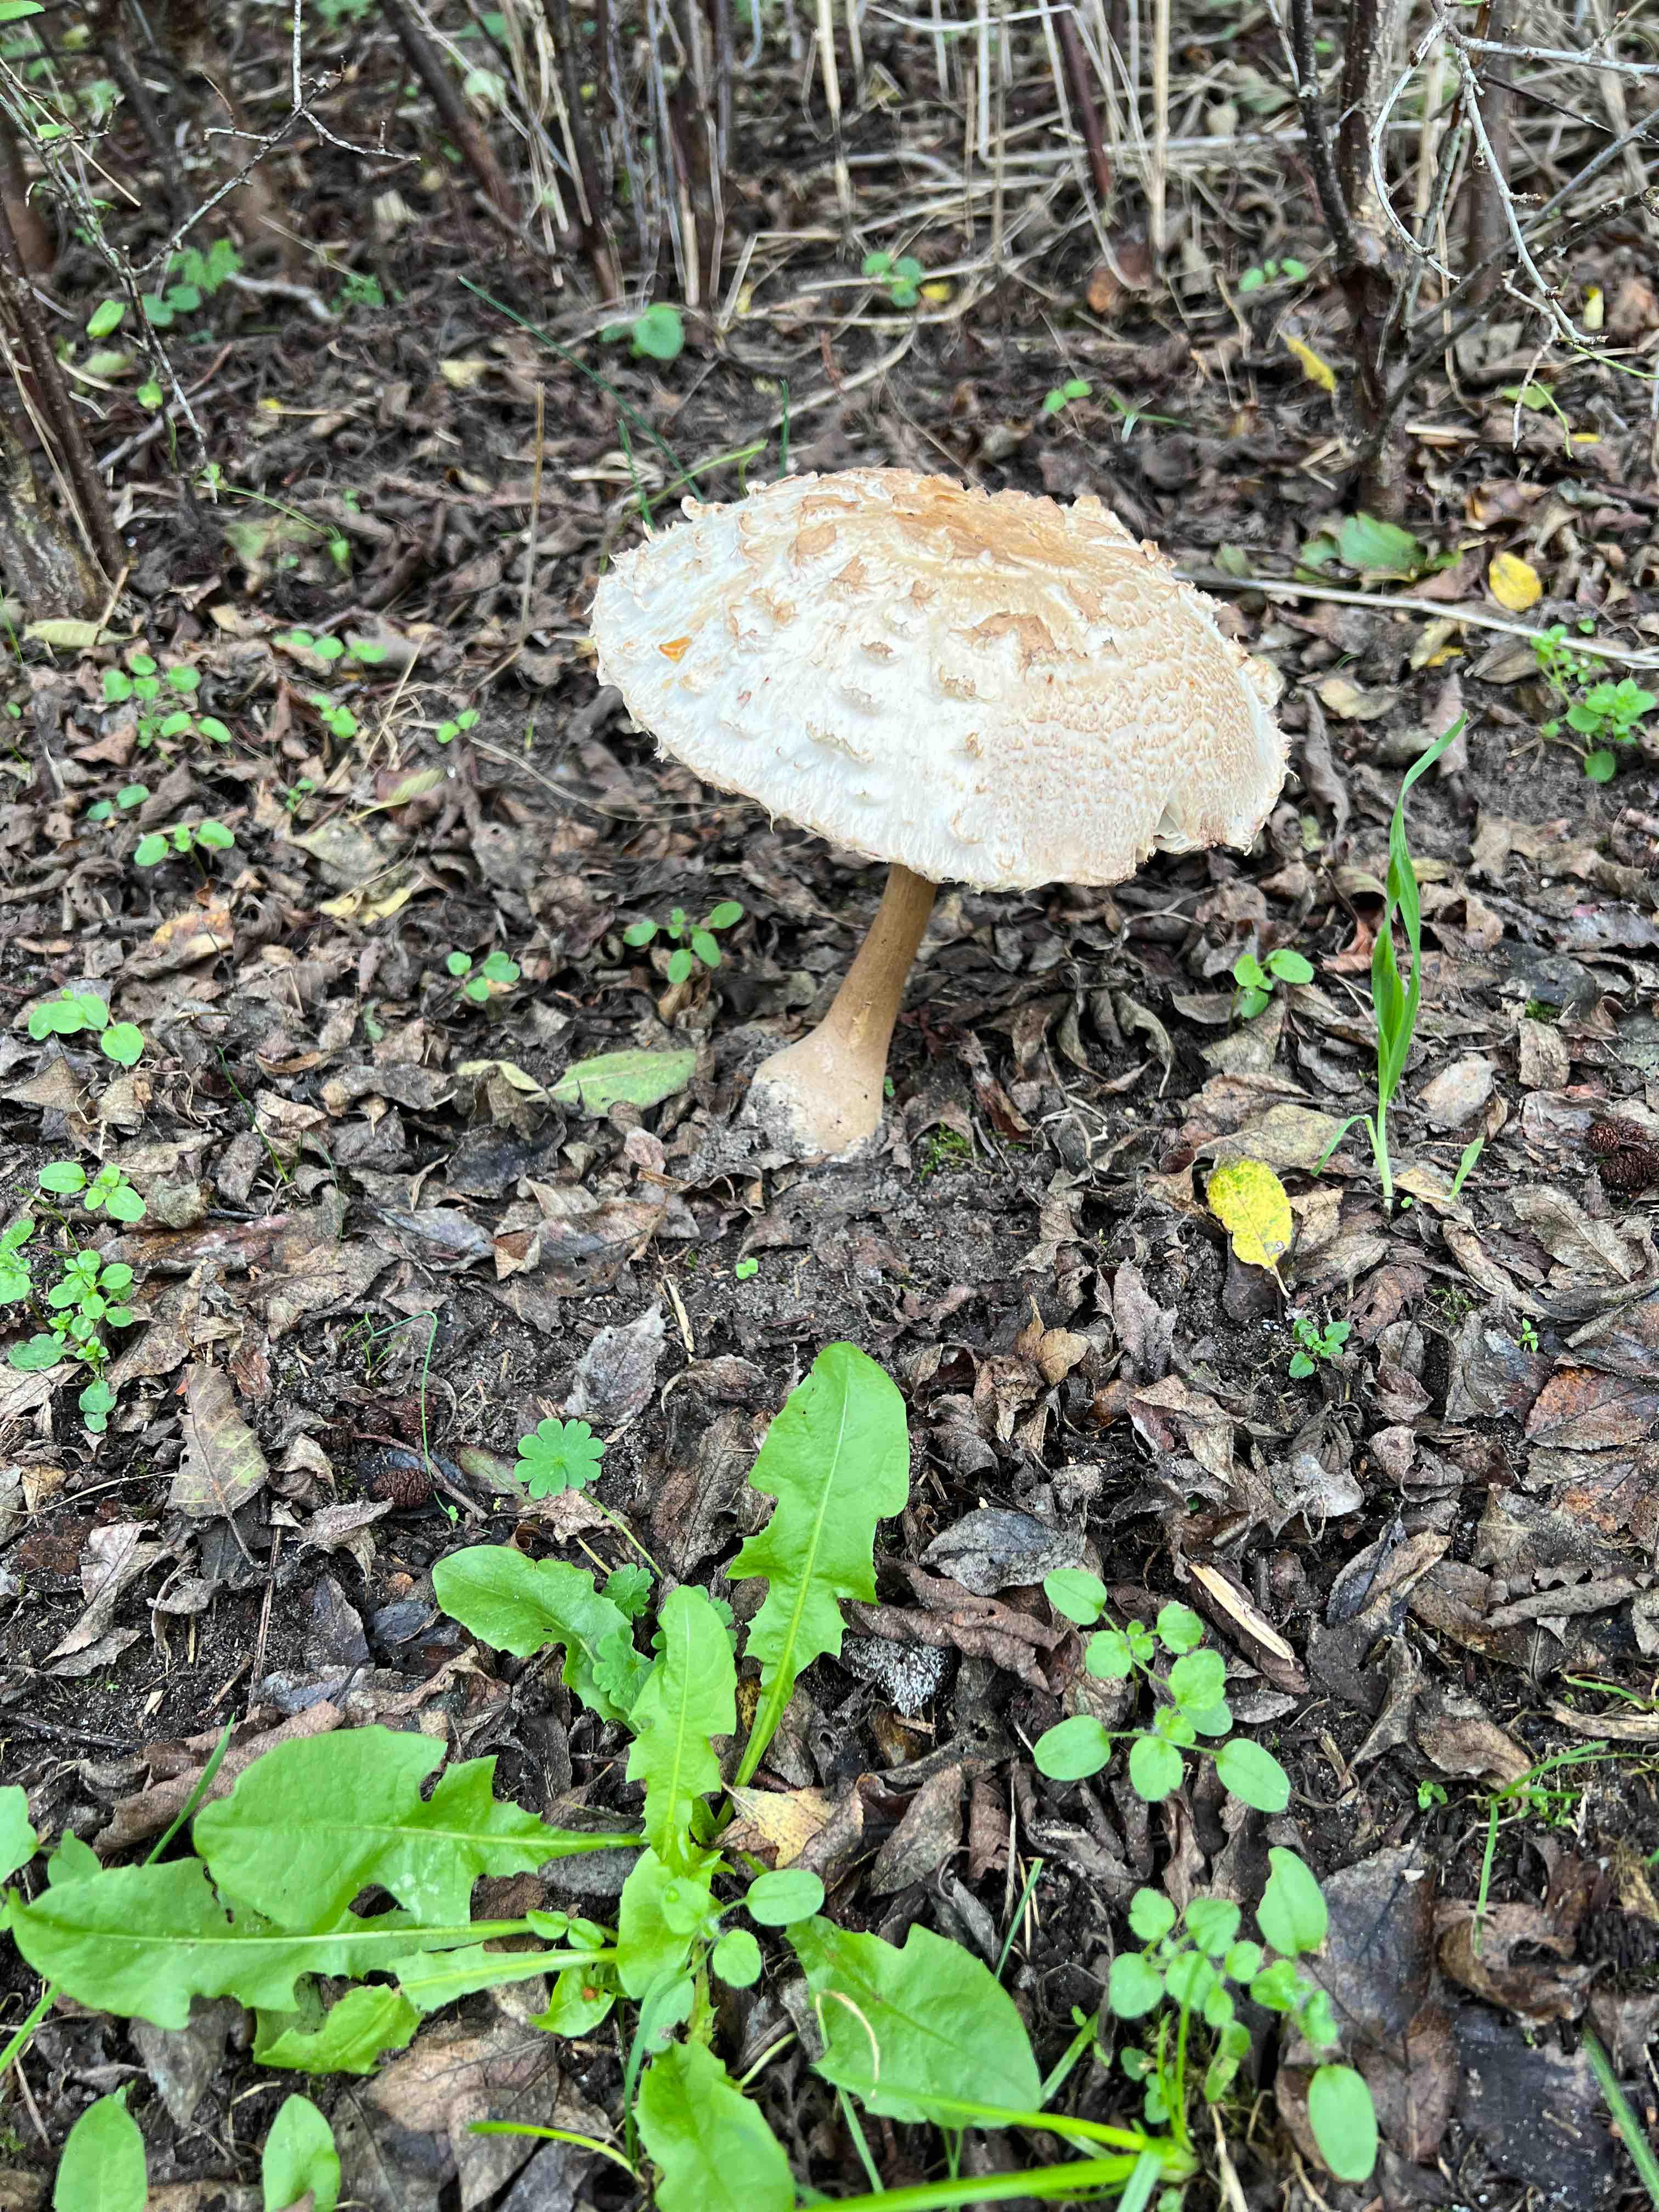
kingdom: Fungi
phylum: Basidiomycota
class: Agaricomycetes
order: Agaricales
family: Agaricaceae
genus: Chlorophyllum
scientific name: Chlorophyllum
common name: rabarberhat
